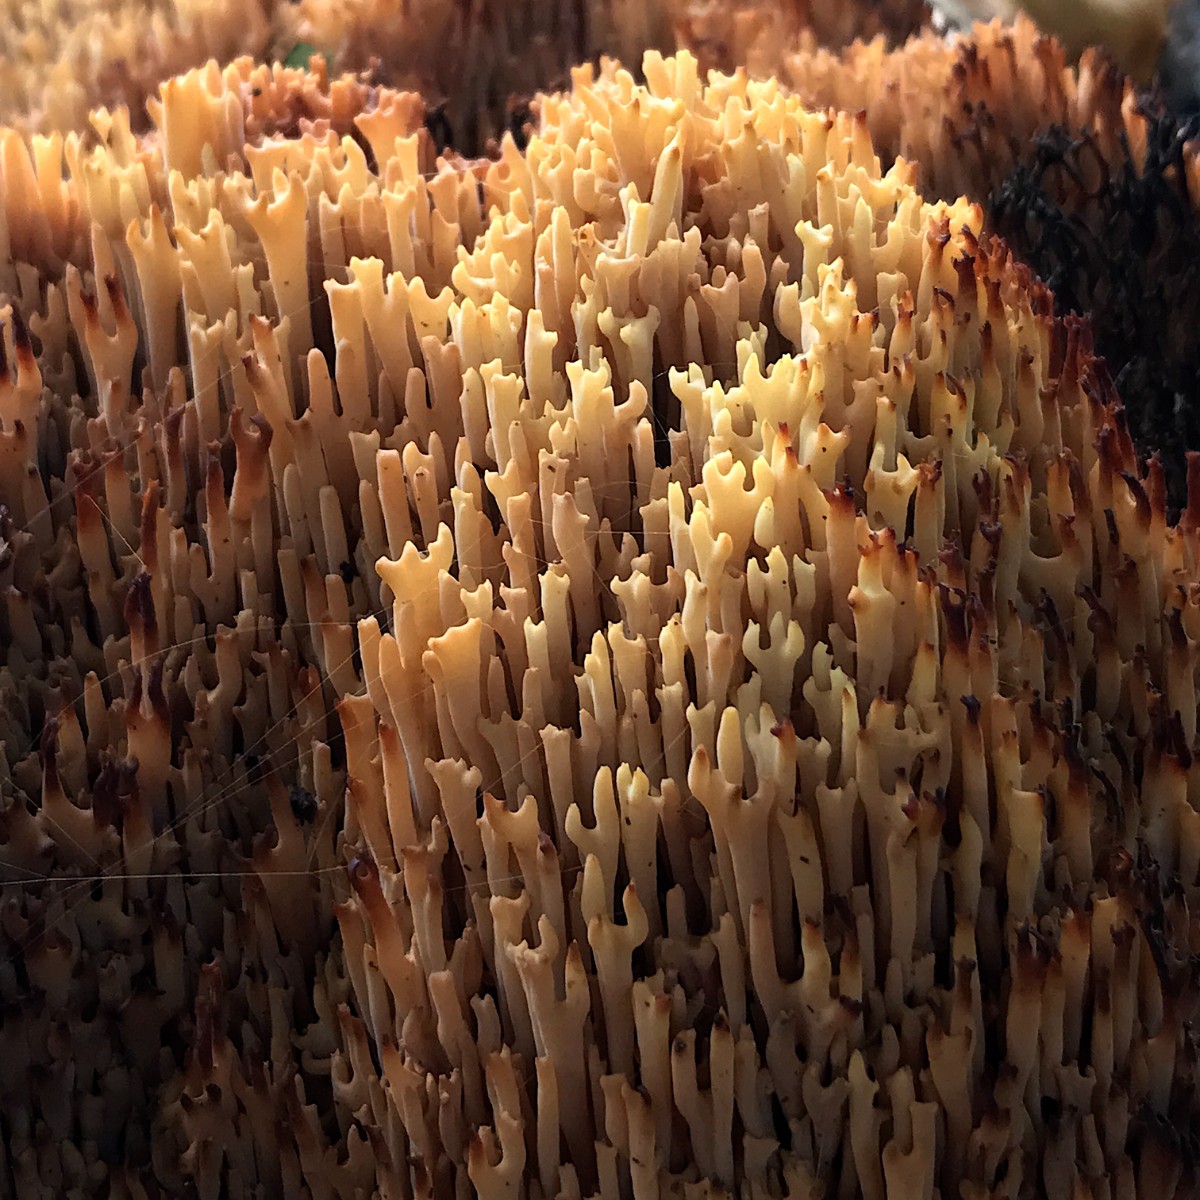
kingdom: Fungi
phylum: Basidiomycota
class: Agaricomycetes
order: Gomphales
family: Gomphaceae
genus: Ramaria
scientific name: Ramaria stricta
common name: rank koralsvamp
